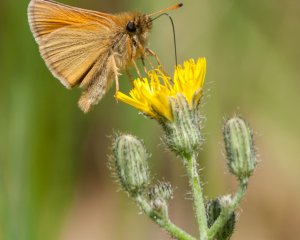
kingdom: Animalia
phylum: Arthropoda
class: Insecta
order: Lepidoptera
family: Hesperiidae
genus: Thymelicus
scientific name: Thymelicus lineola
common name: European Skipper
